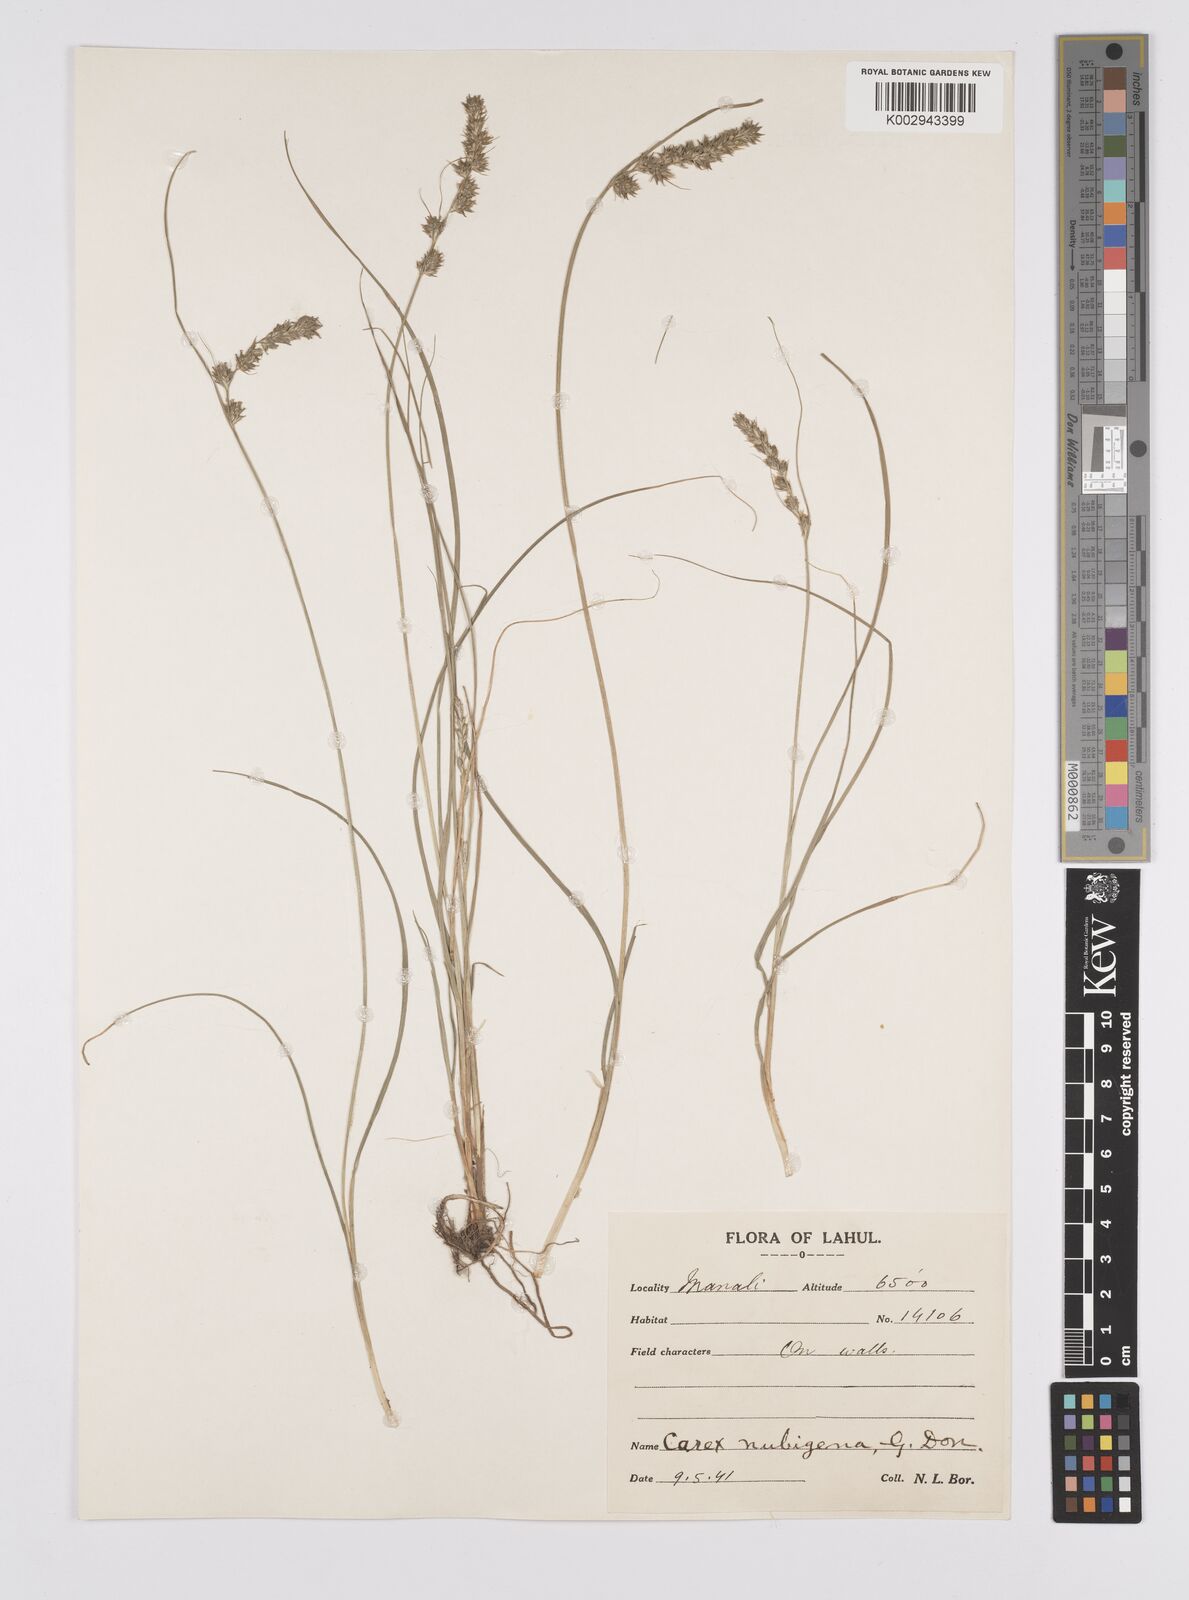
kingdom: Plantae
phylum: Tracheophyta
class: Liliopsida
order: Poales
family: Cyperaceae
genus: Carex
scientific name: Carex nubigena
